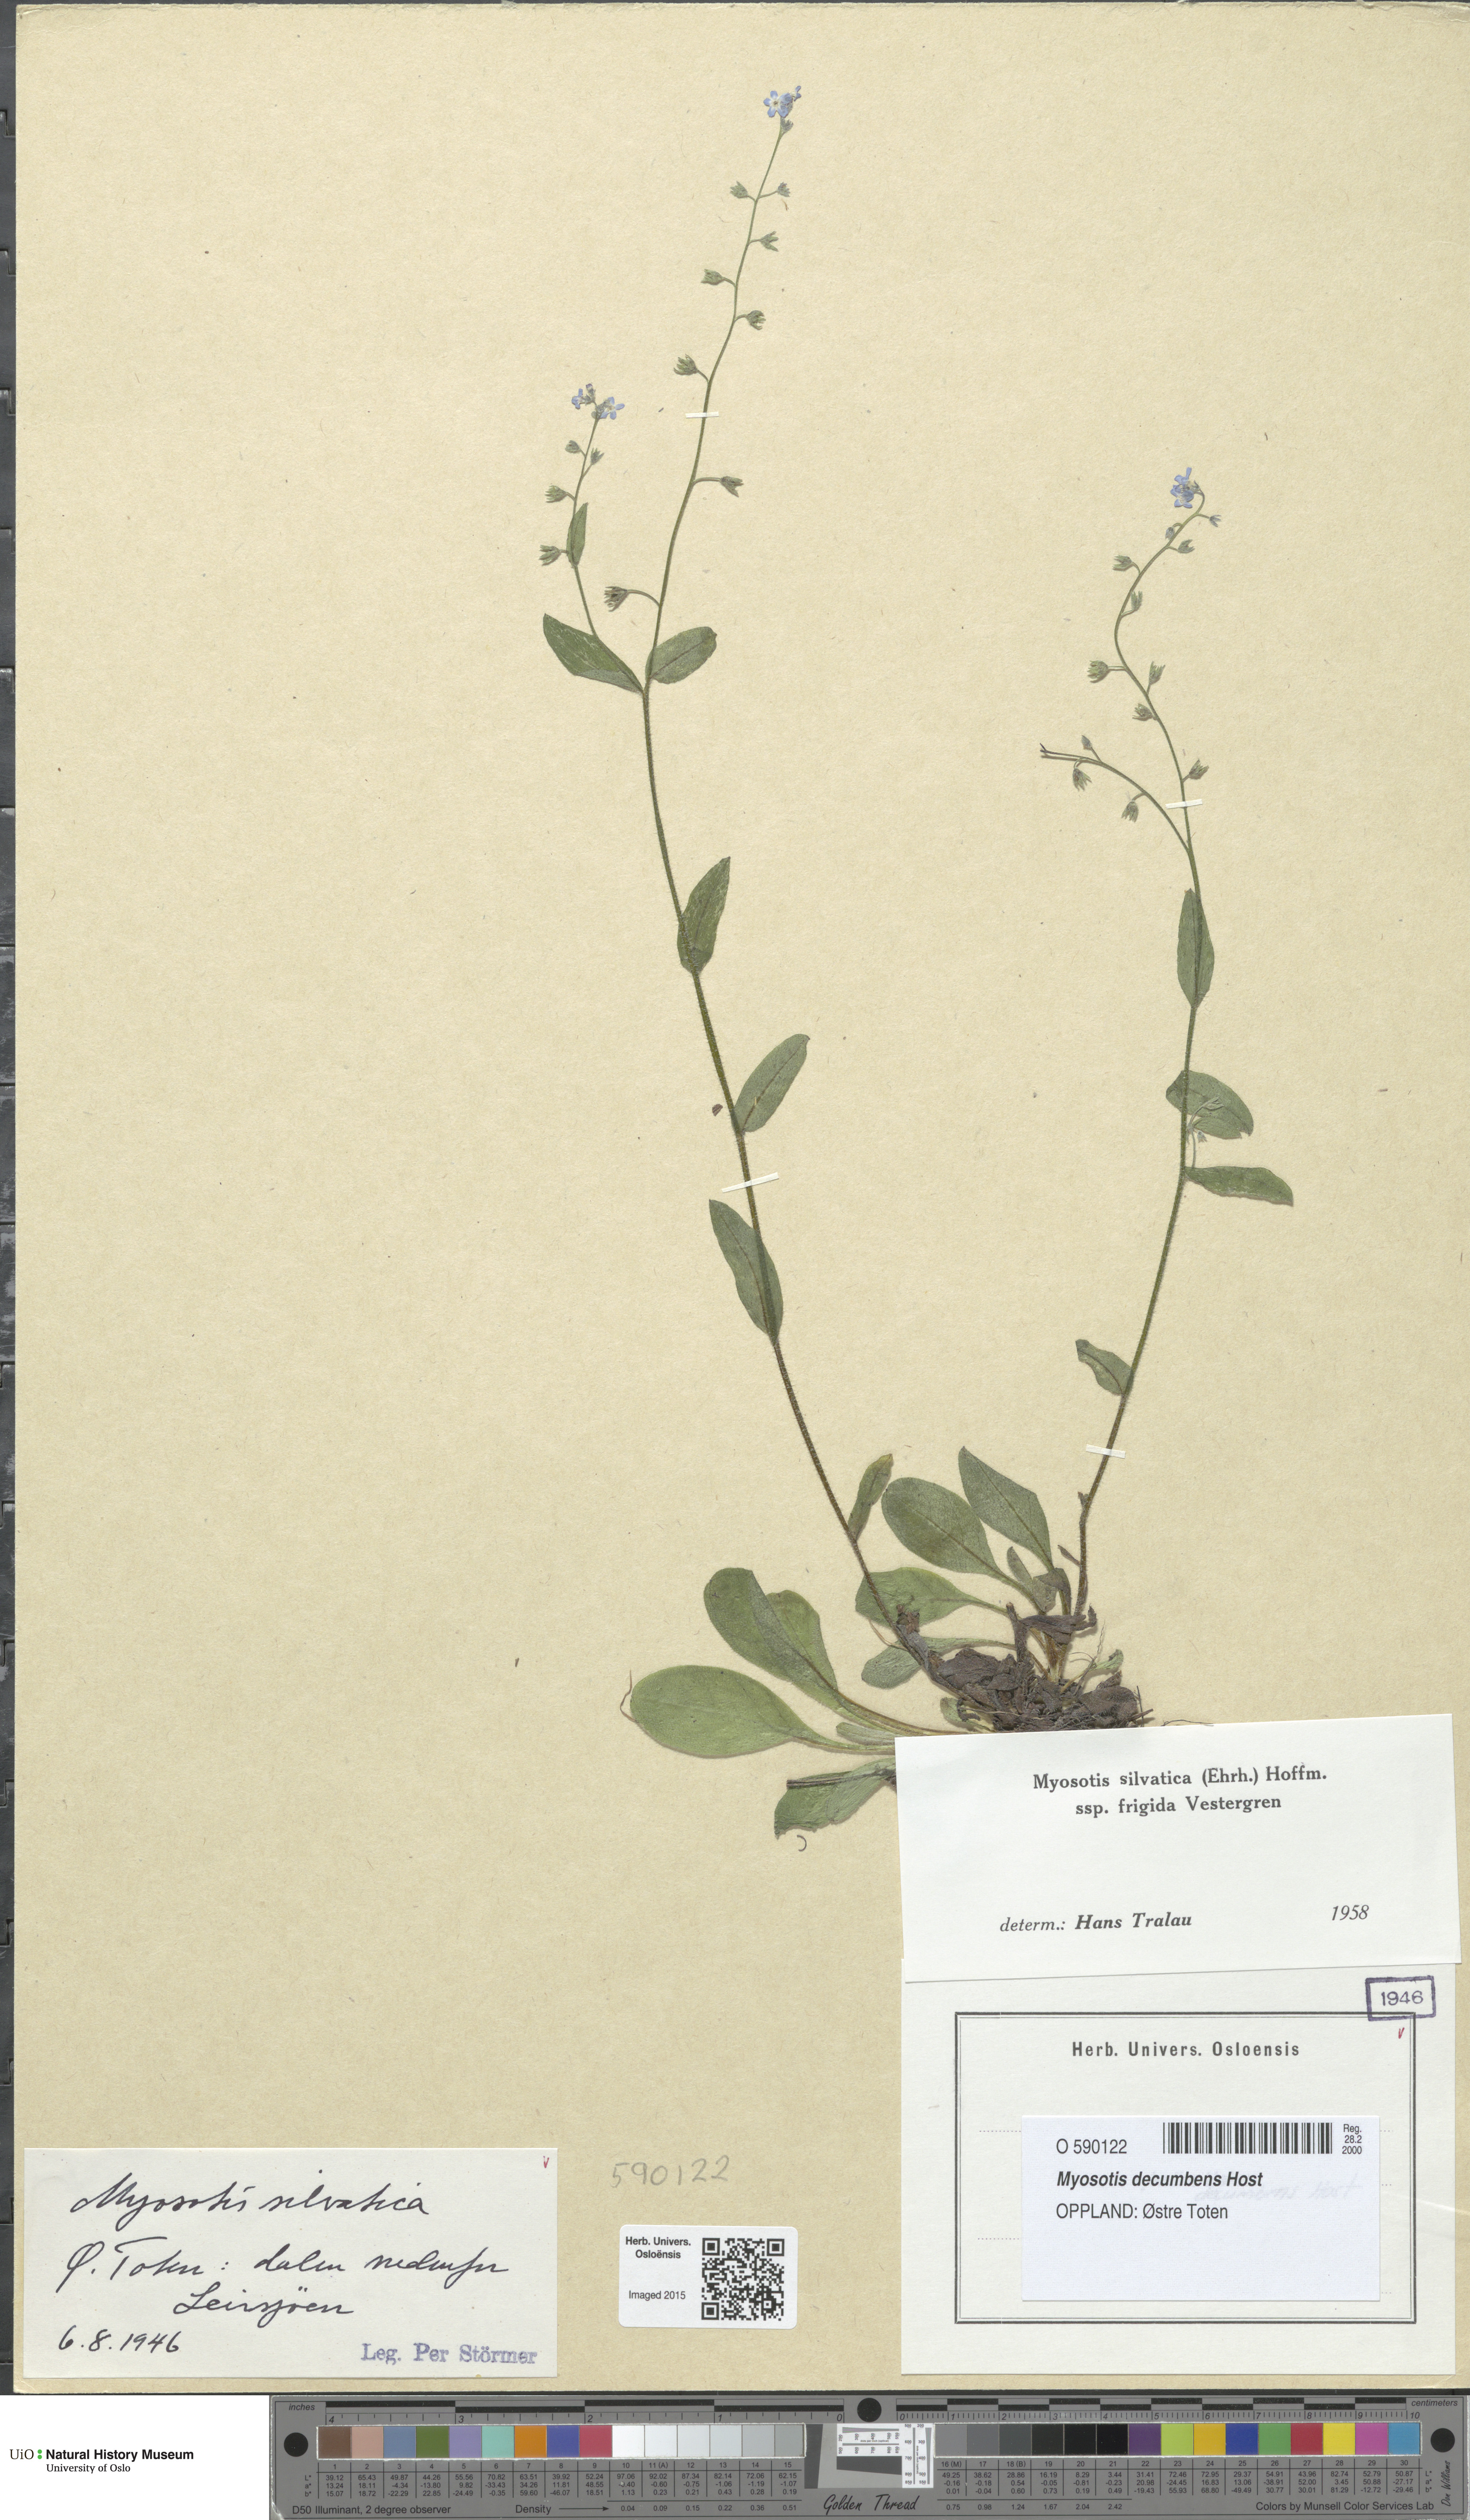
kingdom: Plantae
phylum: Tracheophyta
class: Magnoliopsida
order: Boraginales
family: Boraginaceae
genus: Myosotis
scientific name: Myosotis decumbens
